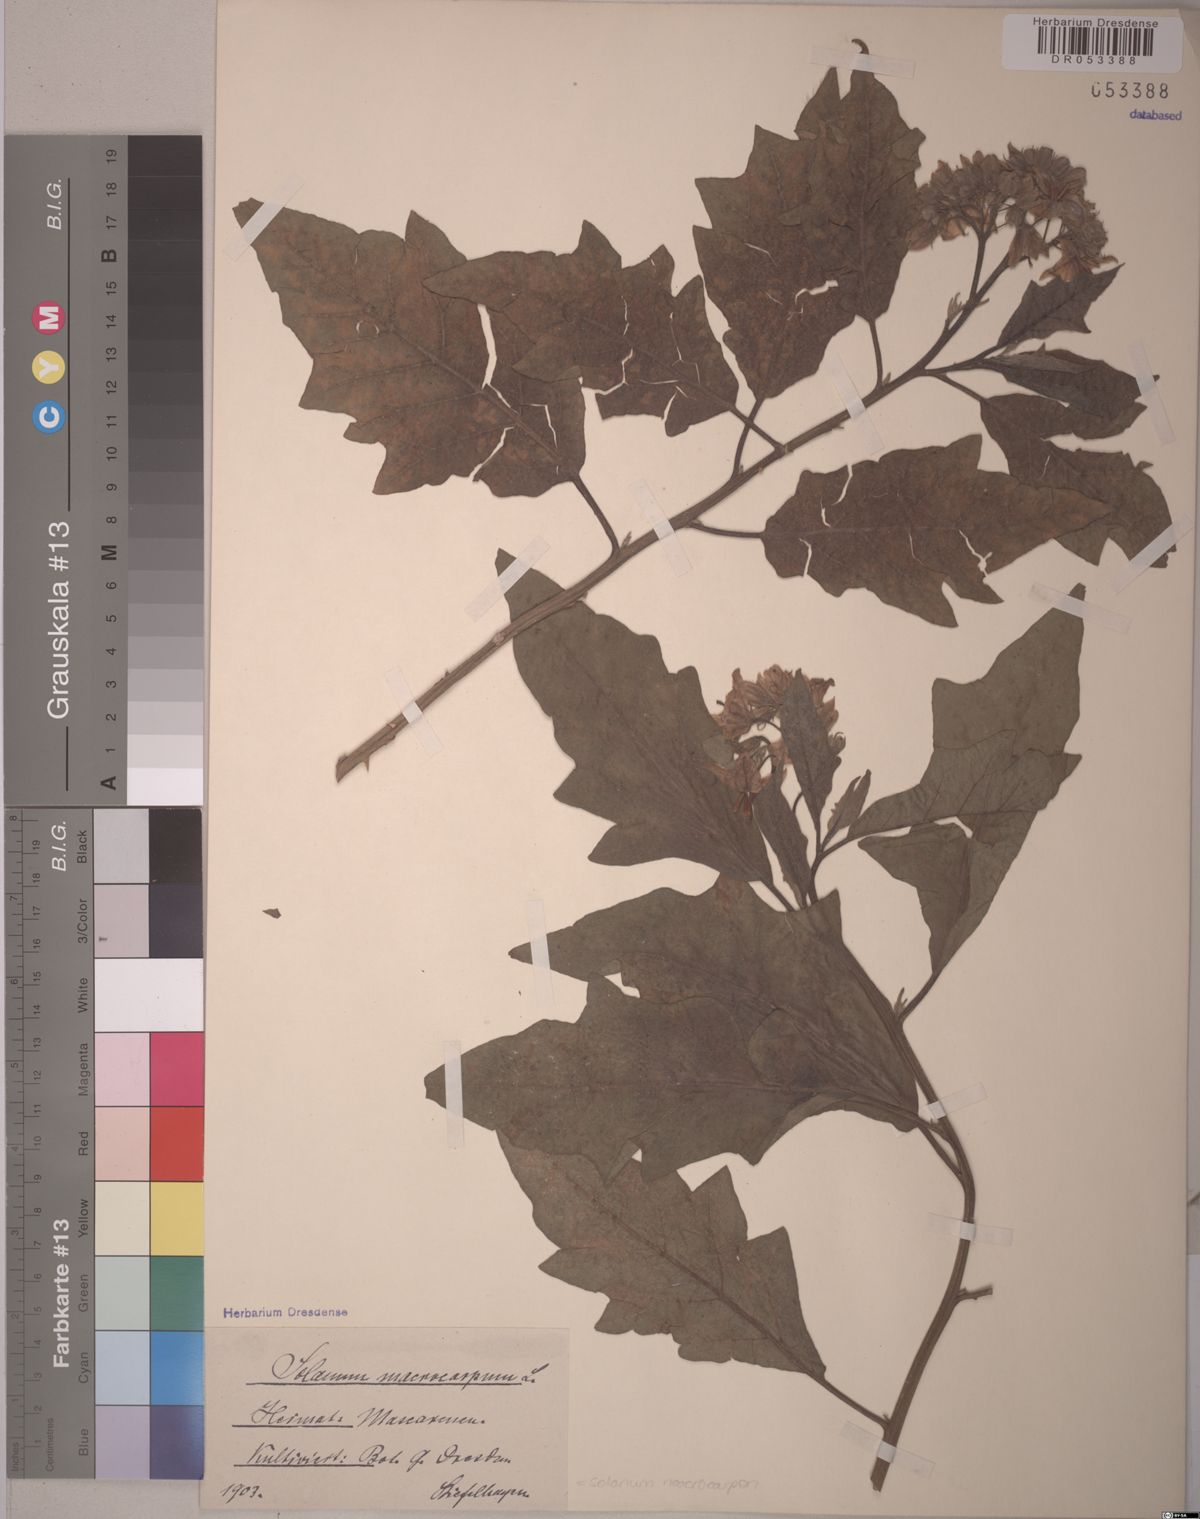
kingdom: Plantae
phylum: Tracheophyta
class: Magnoliopsida
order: Solanales
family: Solanaceae
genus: Solanum
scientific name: Solanum macrocarpon
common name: African eggplant
